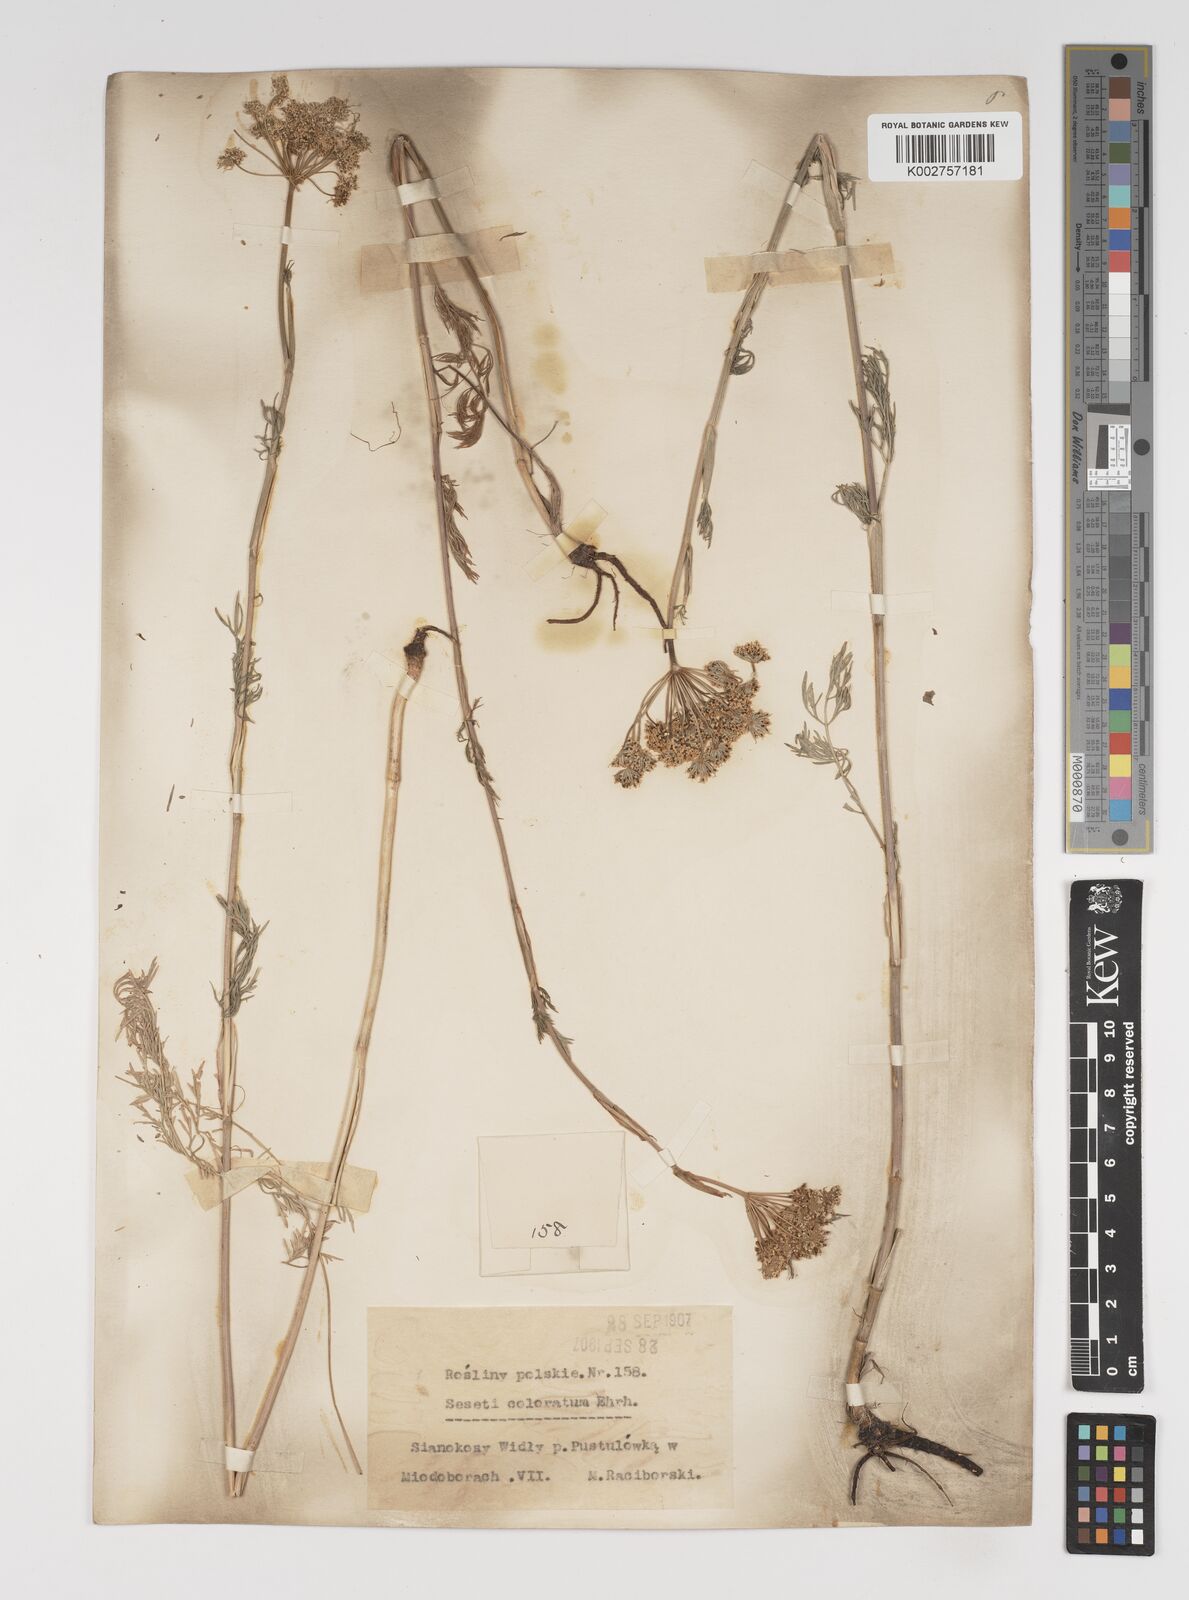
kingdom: Plantae
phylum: Tracheophyta
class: Magnoliopsida
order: Apiales
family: Apiaceae
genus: Seseli
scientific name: Seseli annuum
